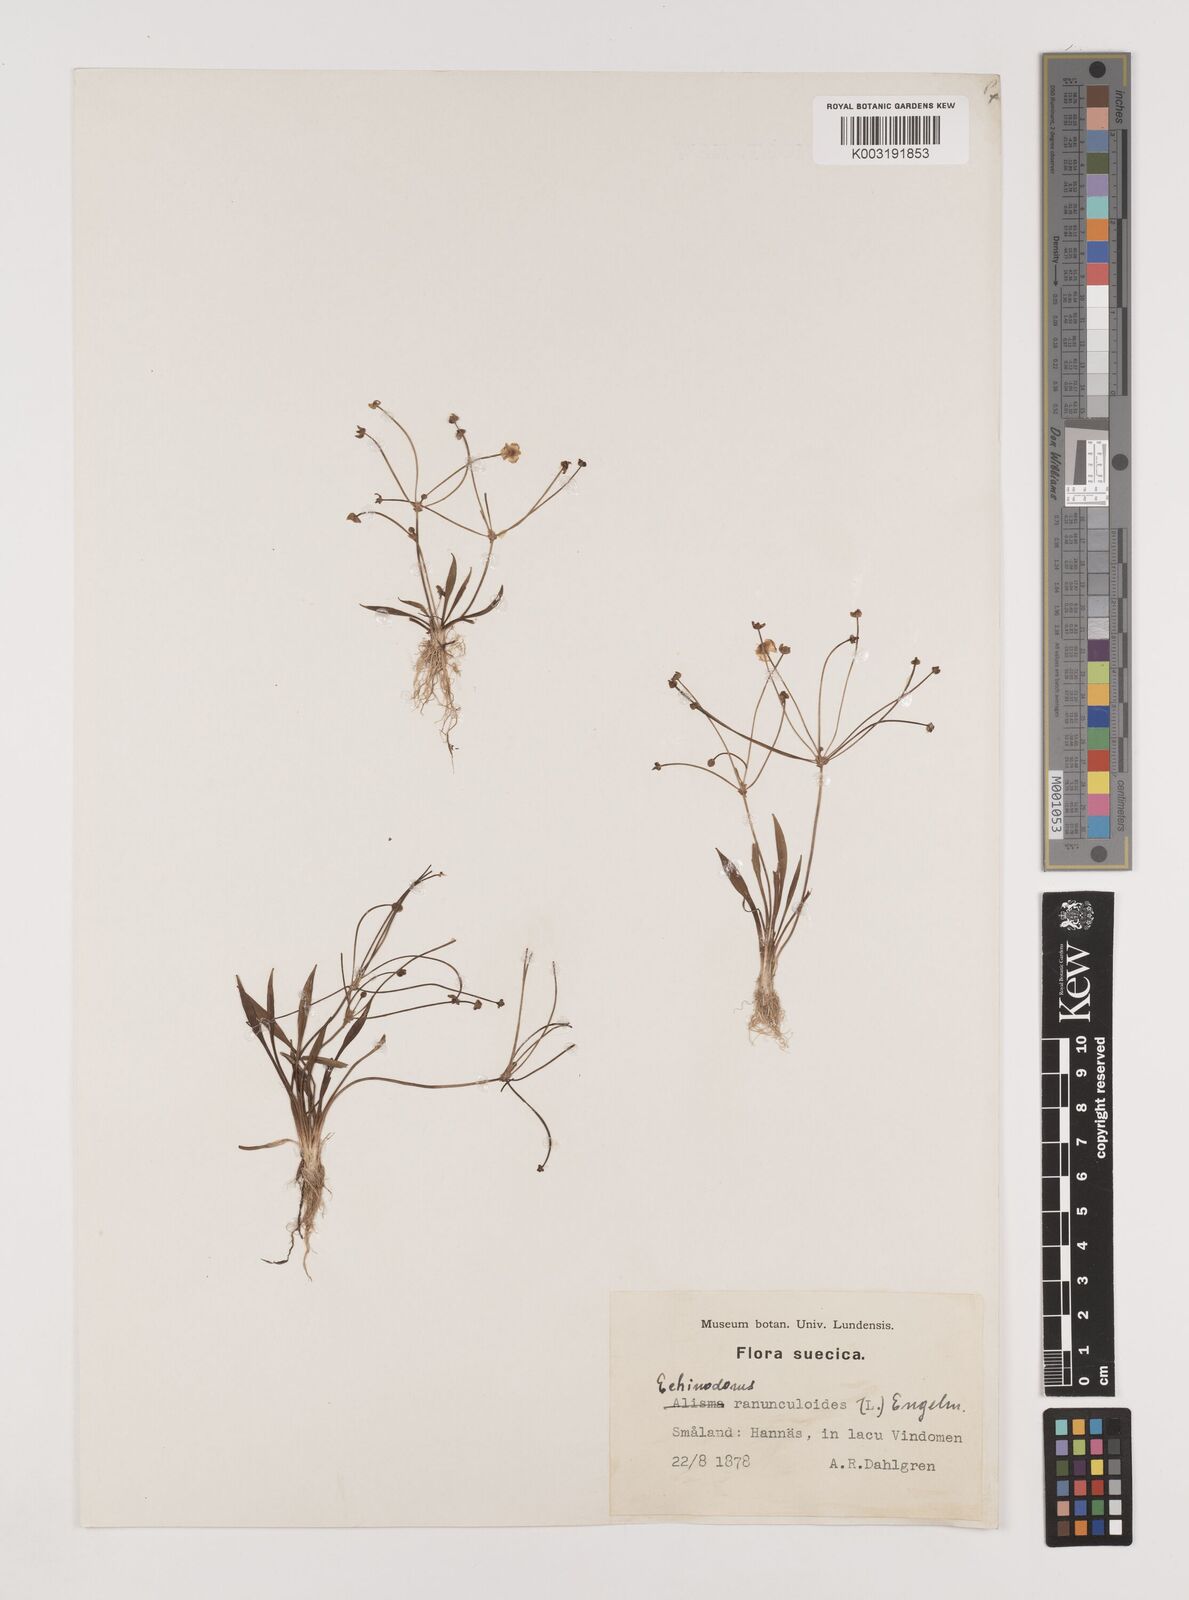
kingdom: Plantae
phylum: Tracheophyta
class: Liliopsida
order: Alismatales
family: Alismataceae
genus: Baldellia
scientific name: Baldellia ranunculoides
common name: Lesser water-plantain
